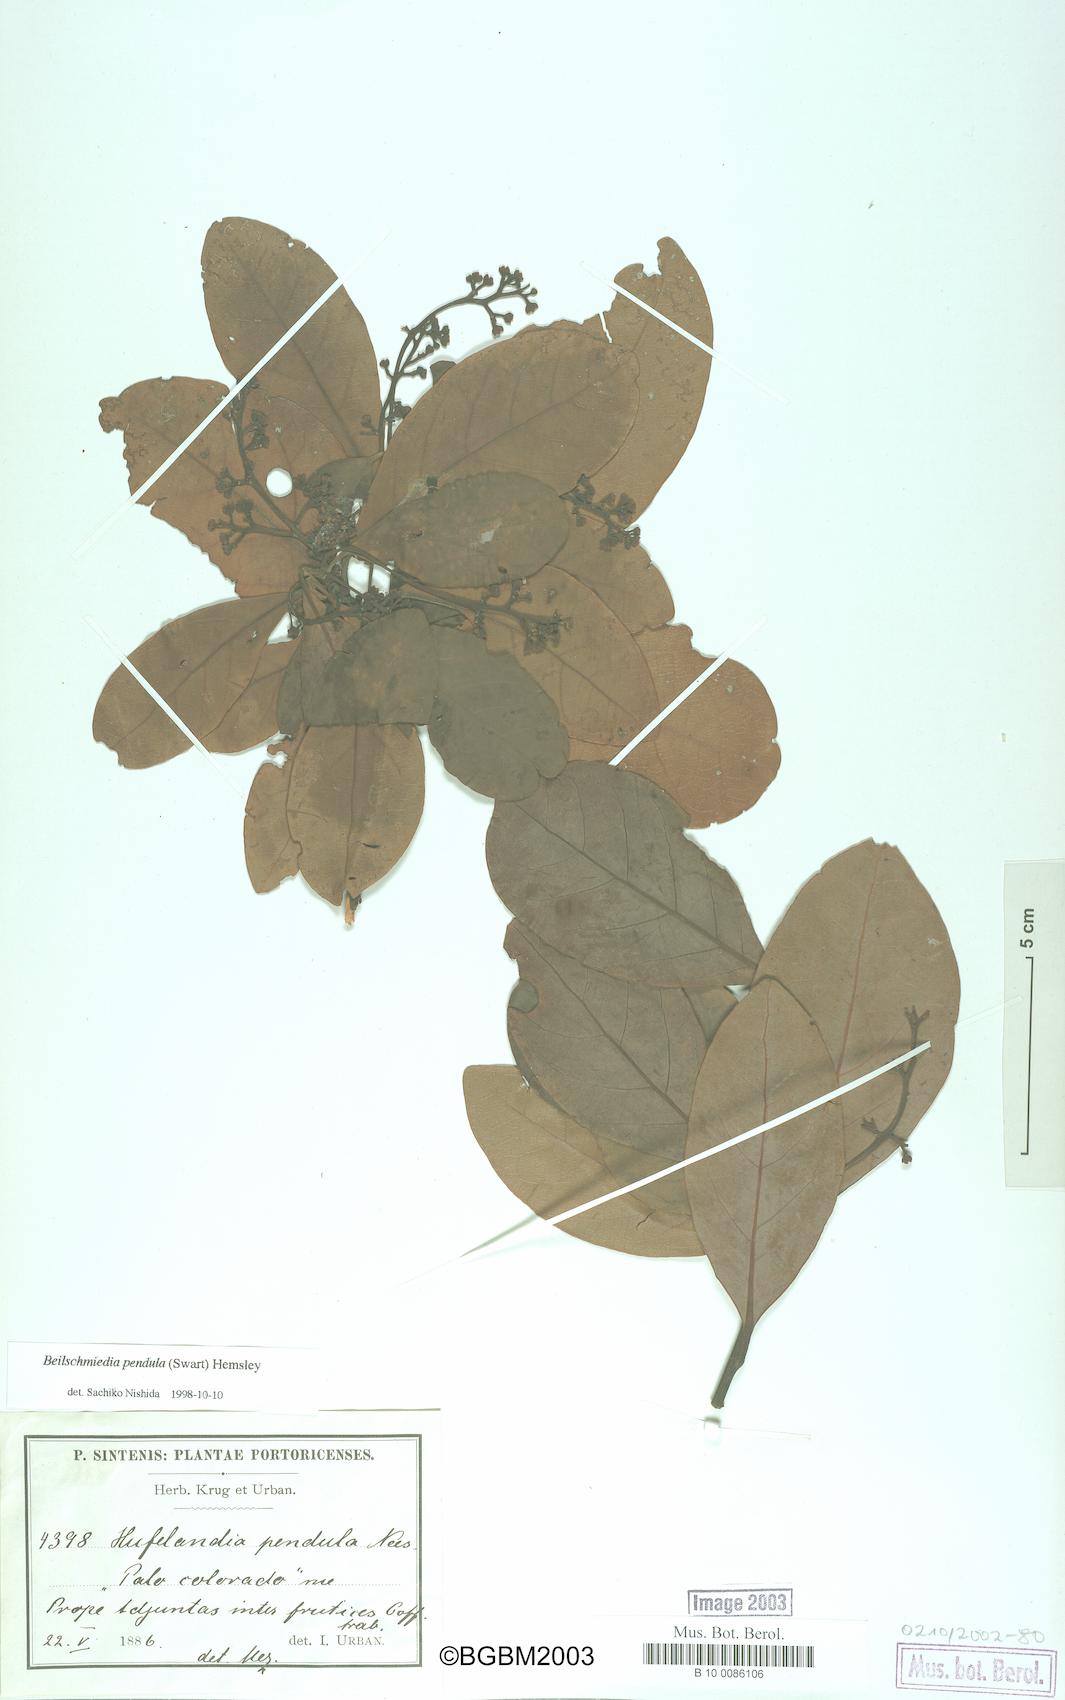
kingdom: Plantae
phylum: Tracheophyta
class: Magnoliopsida
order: Laurales
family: Lauraceae
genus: Beilschmiedia
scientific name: Beilschmiedia pendula
